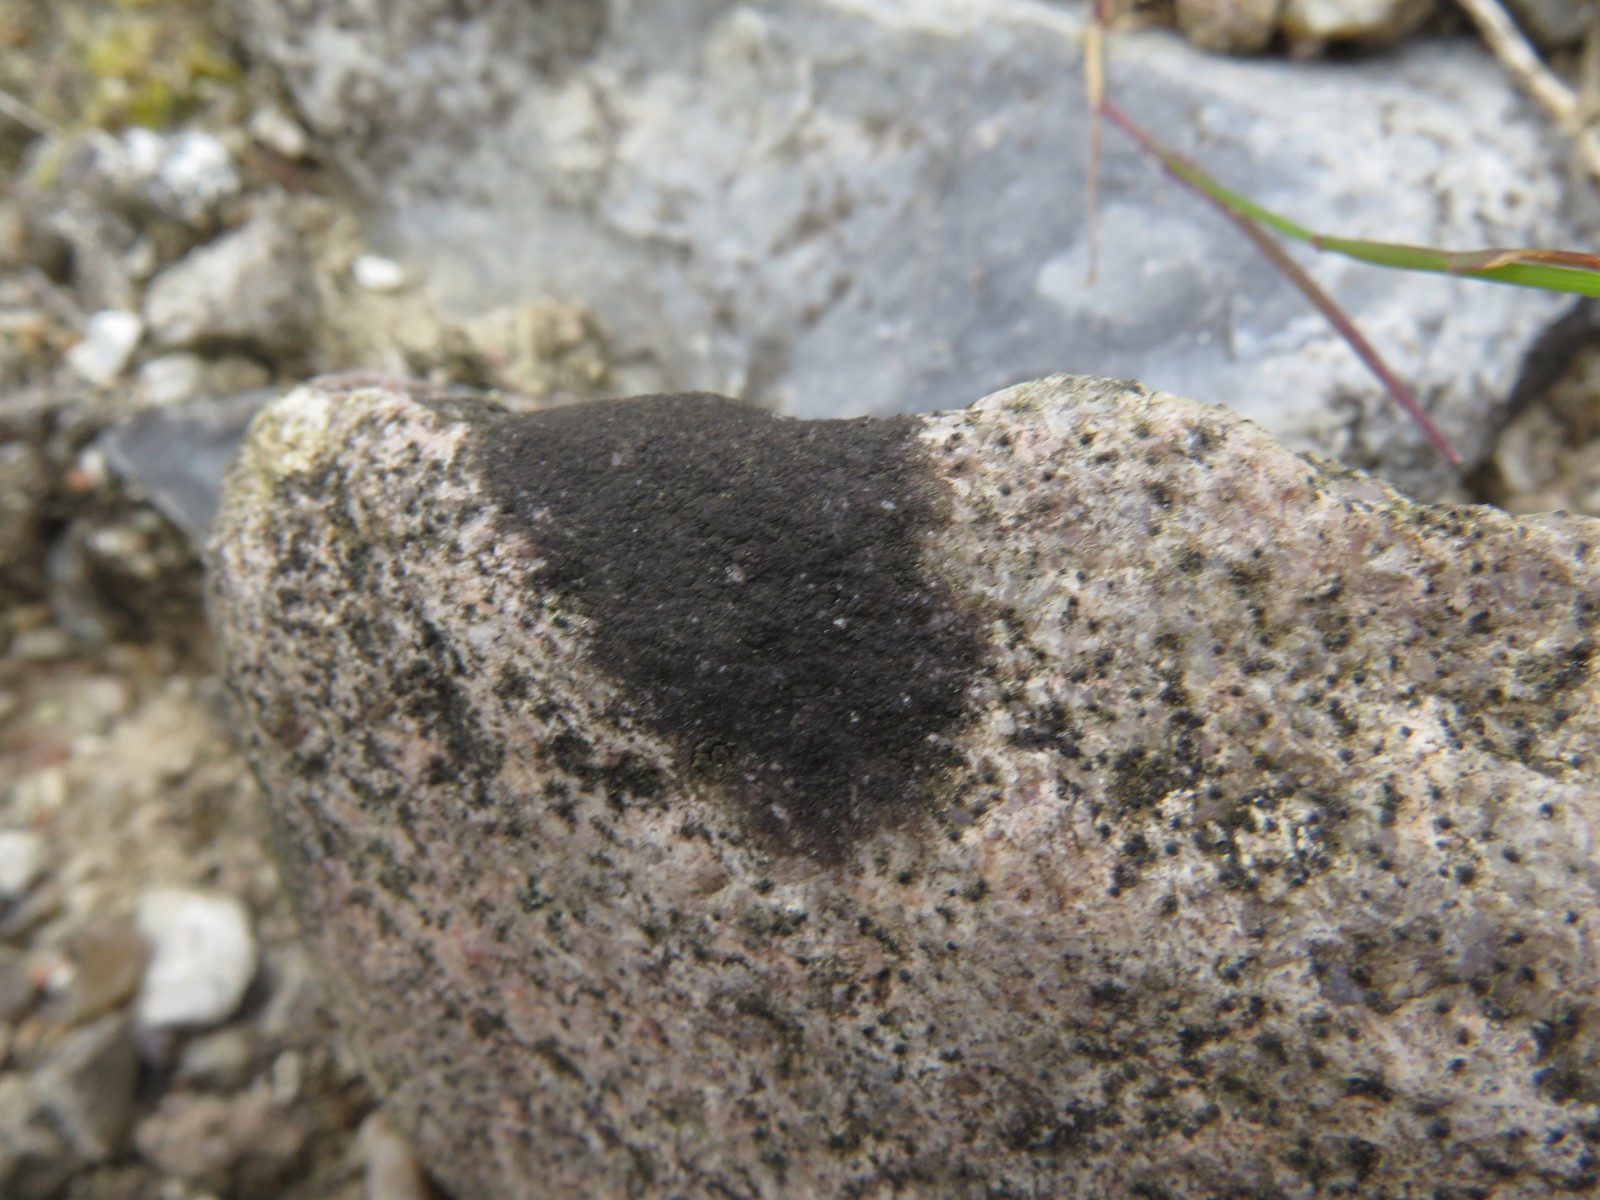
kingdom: Fungi
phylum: Ascomycota
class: Eurotiomycetes
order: Verrucariales
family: Verrucariaceae
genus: Verrucaria
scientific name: Verrucaria nigrescens
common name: sortbrun vortelav
